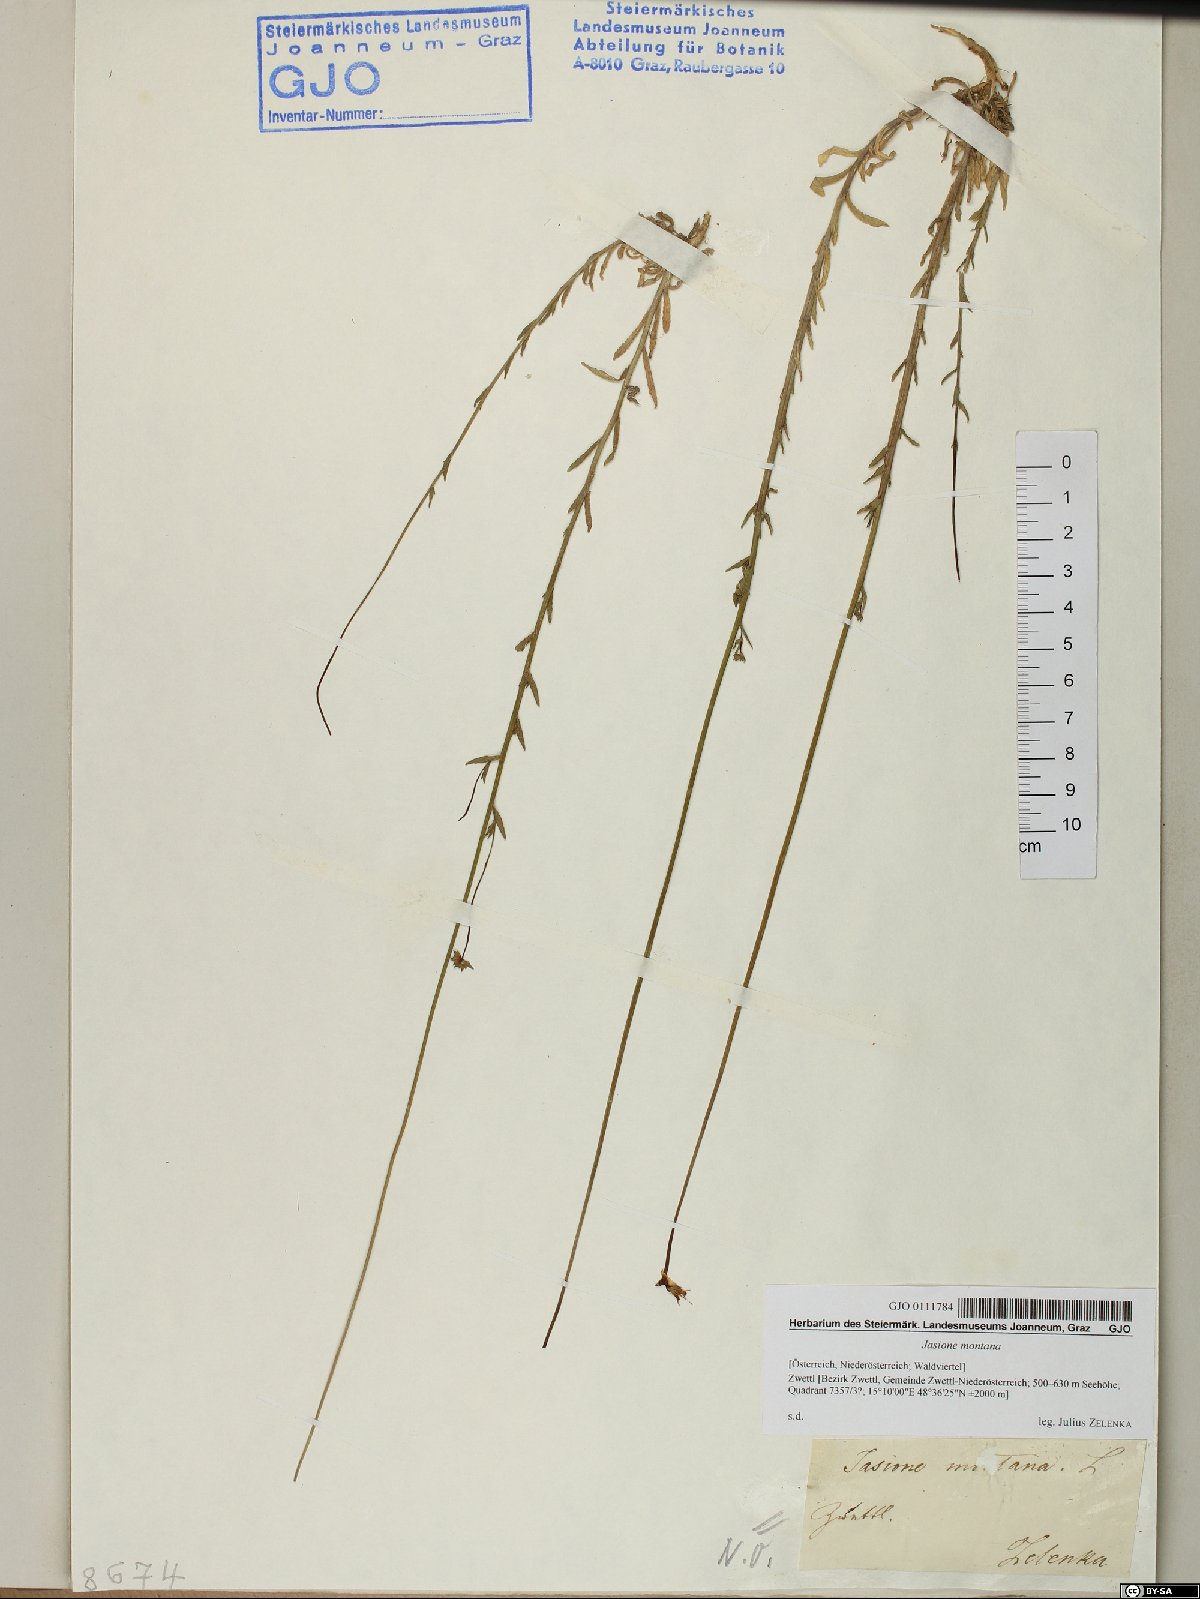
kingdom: Plantae
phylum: Tracheophyta
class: Magnoliopsida
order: Asterales
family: Campanulaceae
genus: Jasione
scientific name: Jasione montana
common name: Sheep's-bit
